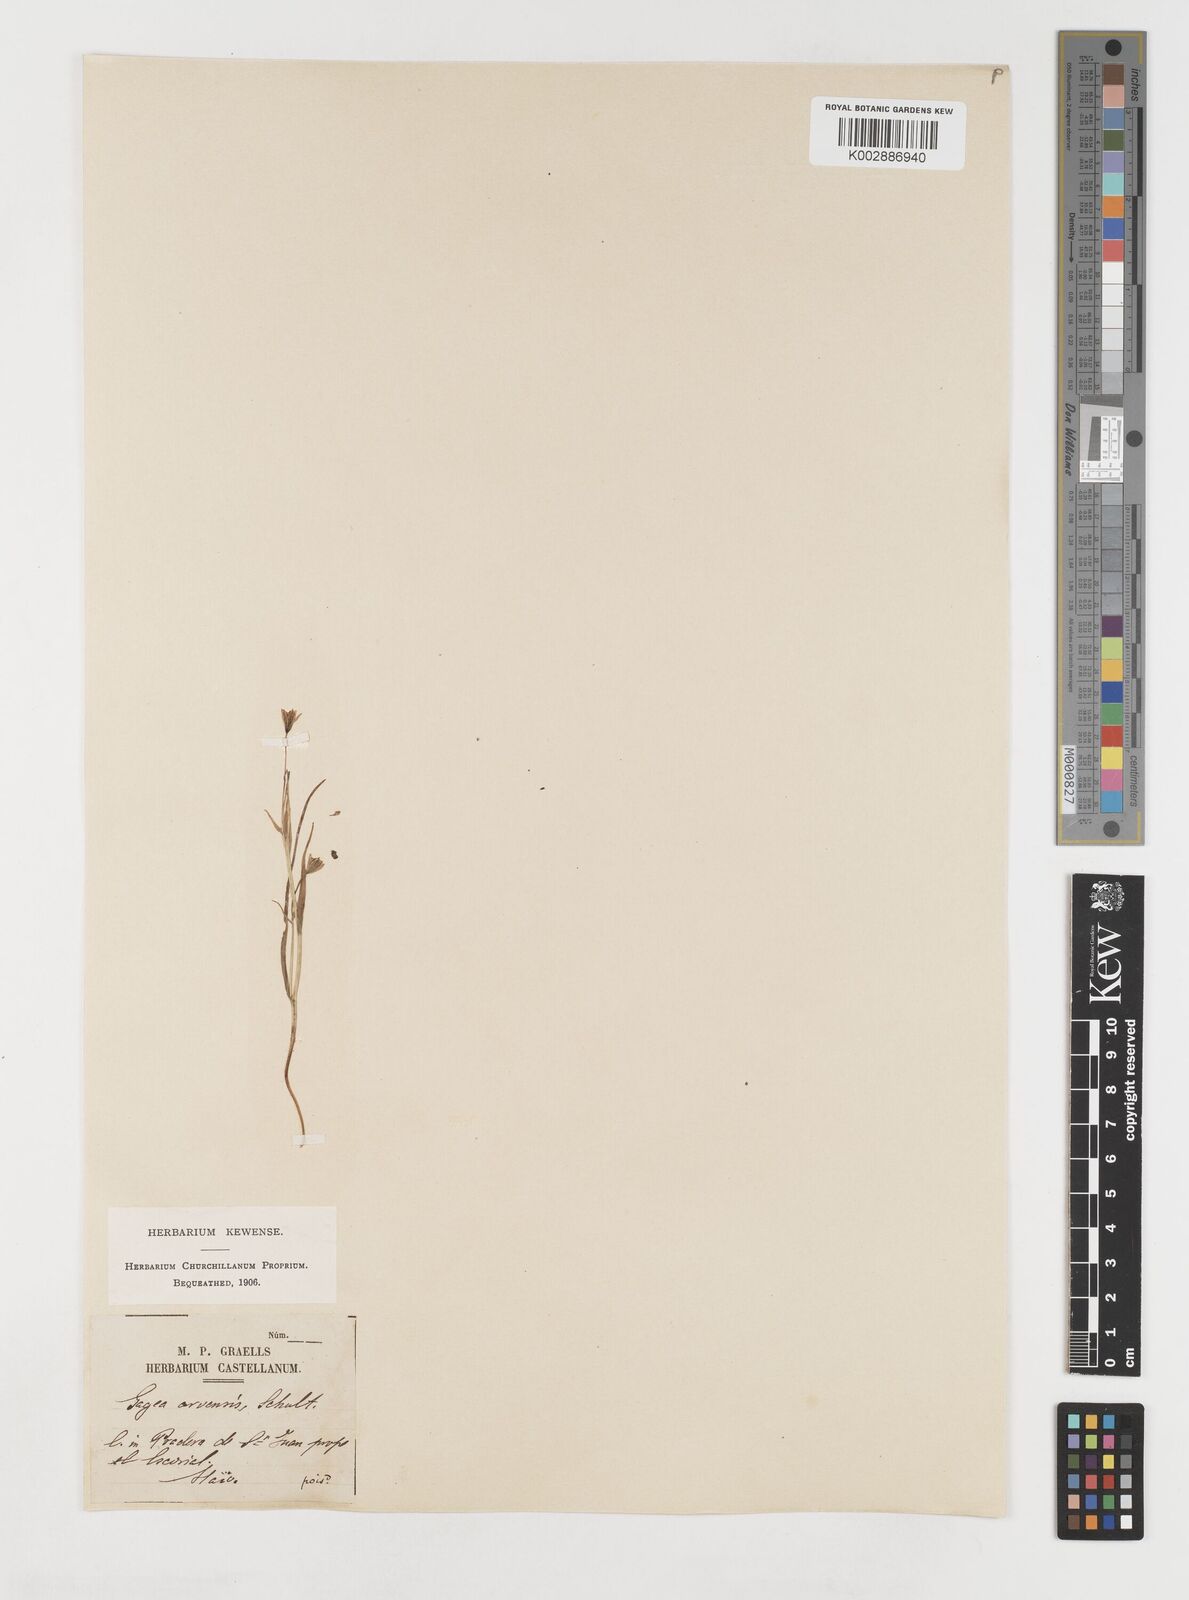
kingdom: Plantae
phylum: Tracheophyta
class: Liliopsida
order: Liliales
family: Liliaceae
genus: Gagea
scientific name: Gagea foliosa
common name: Leafy gagea
